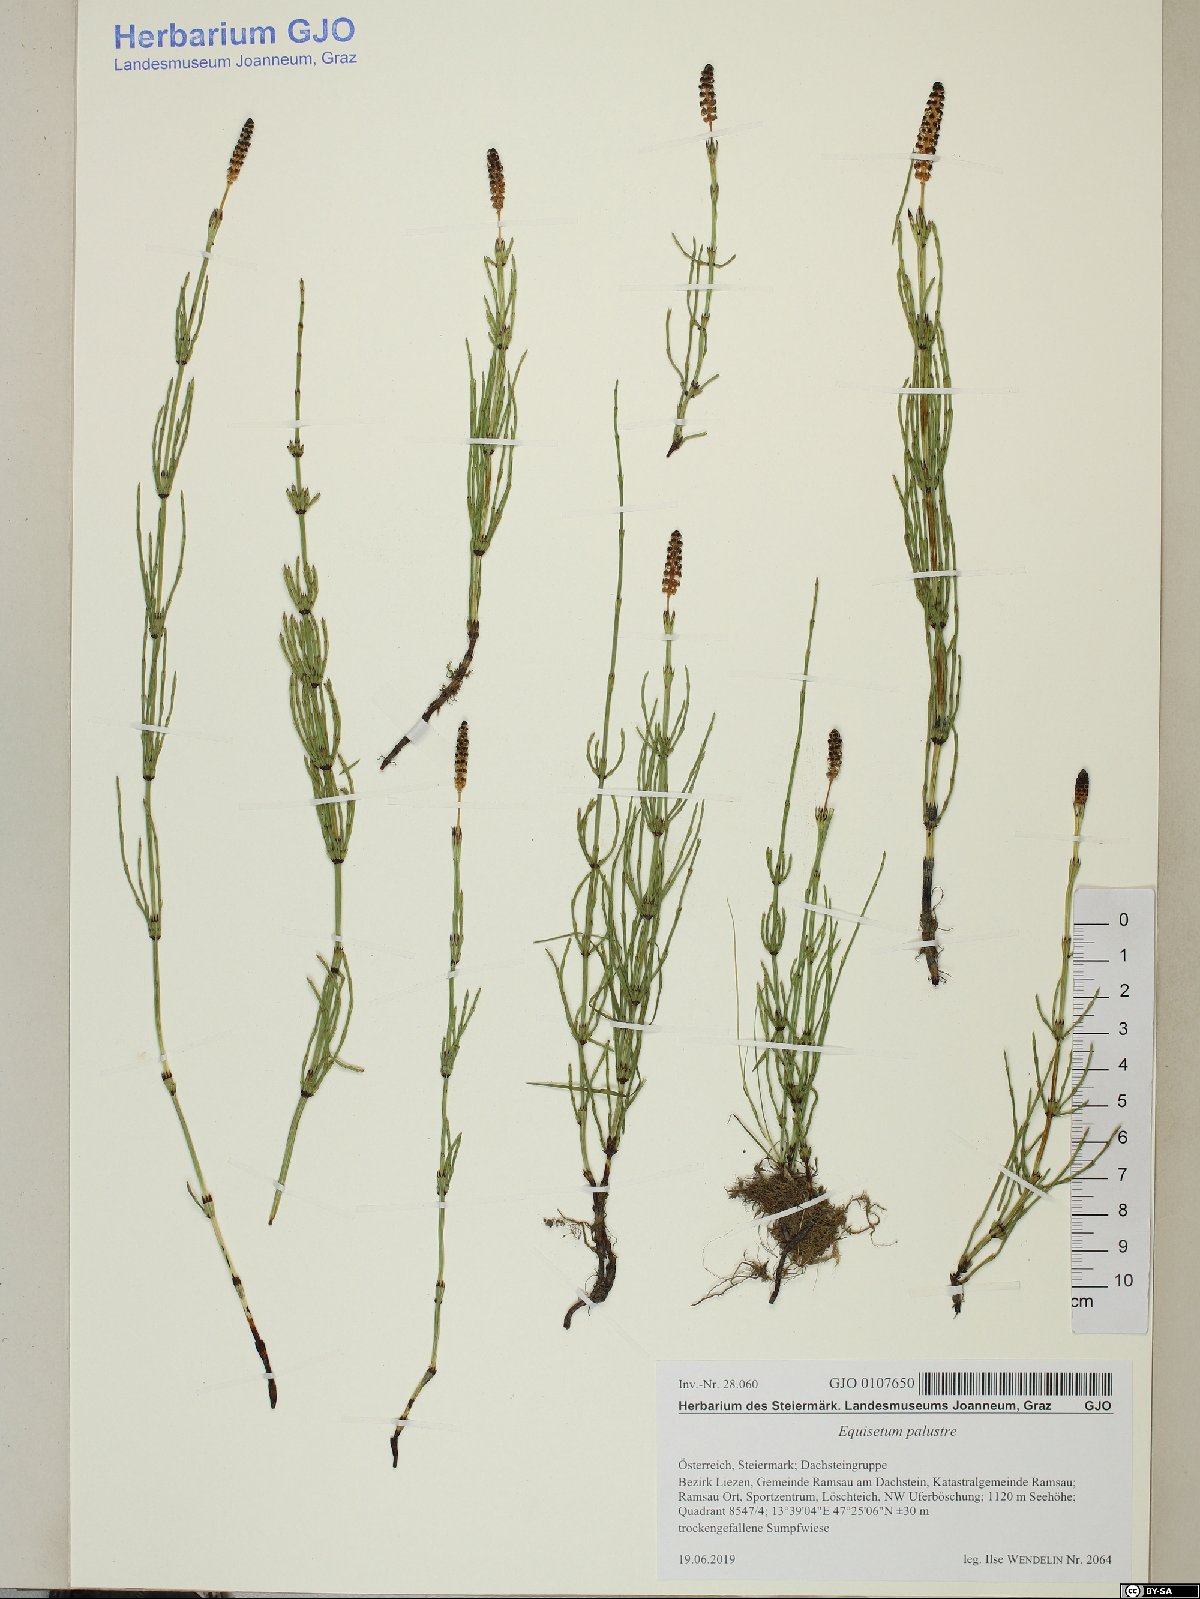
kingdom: Plantae
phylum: Tracheophyta
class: Polypodiopsida
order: Equisetales
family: Equisetaceae
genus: Equisetum
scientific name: Equisetum palustre
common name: Marsh horsetail
